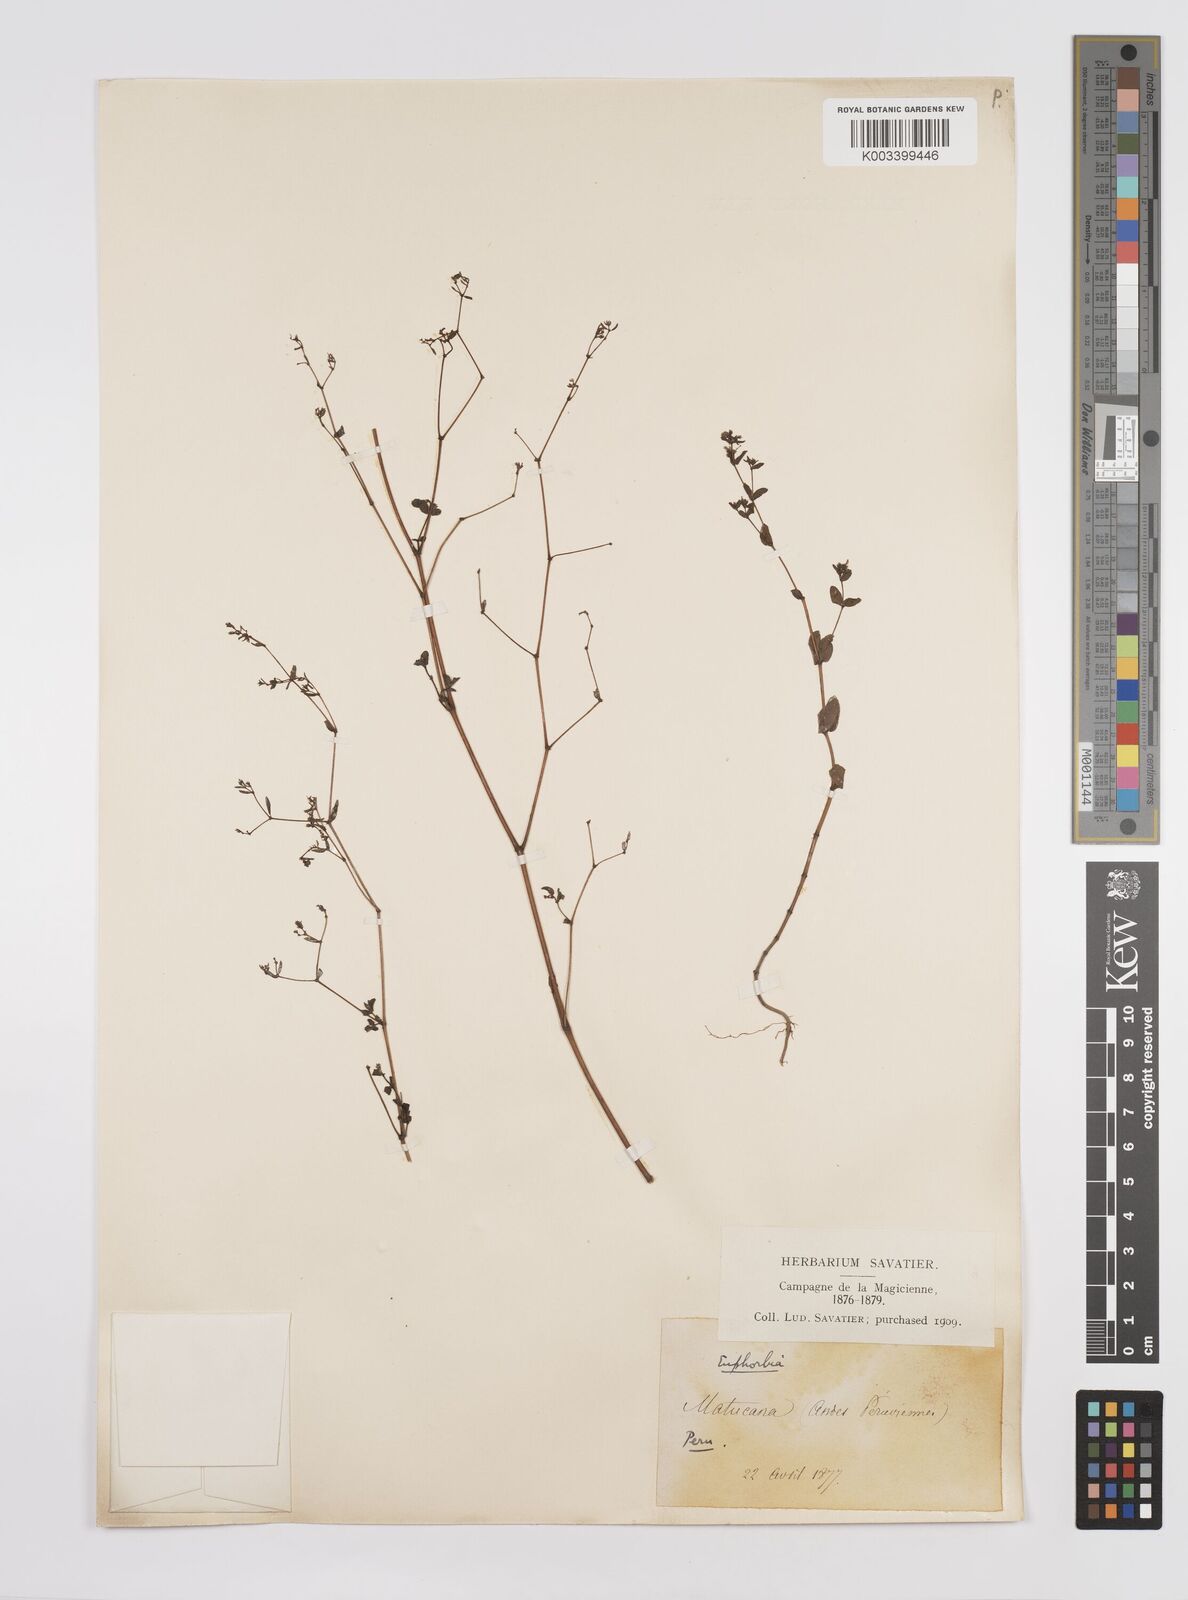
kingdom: Plantae
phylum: Tracheophyta
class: Magnoliopsida
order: Malpighiales
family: Euphorbiaceae
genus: Euphorbia
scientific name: Euphorbia
